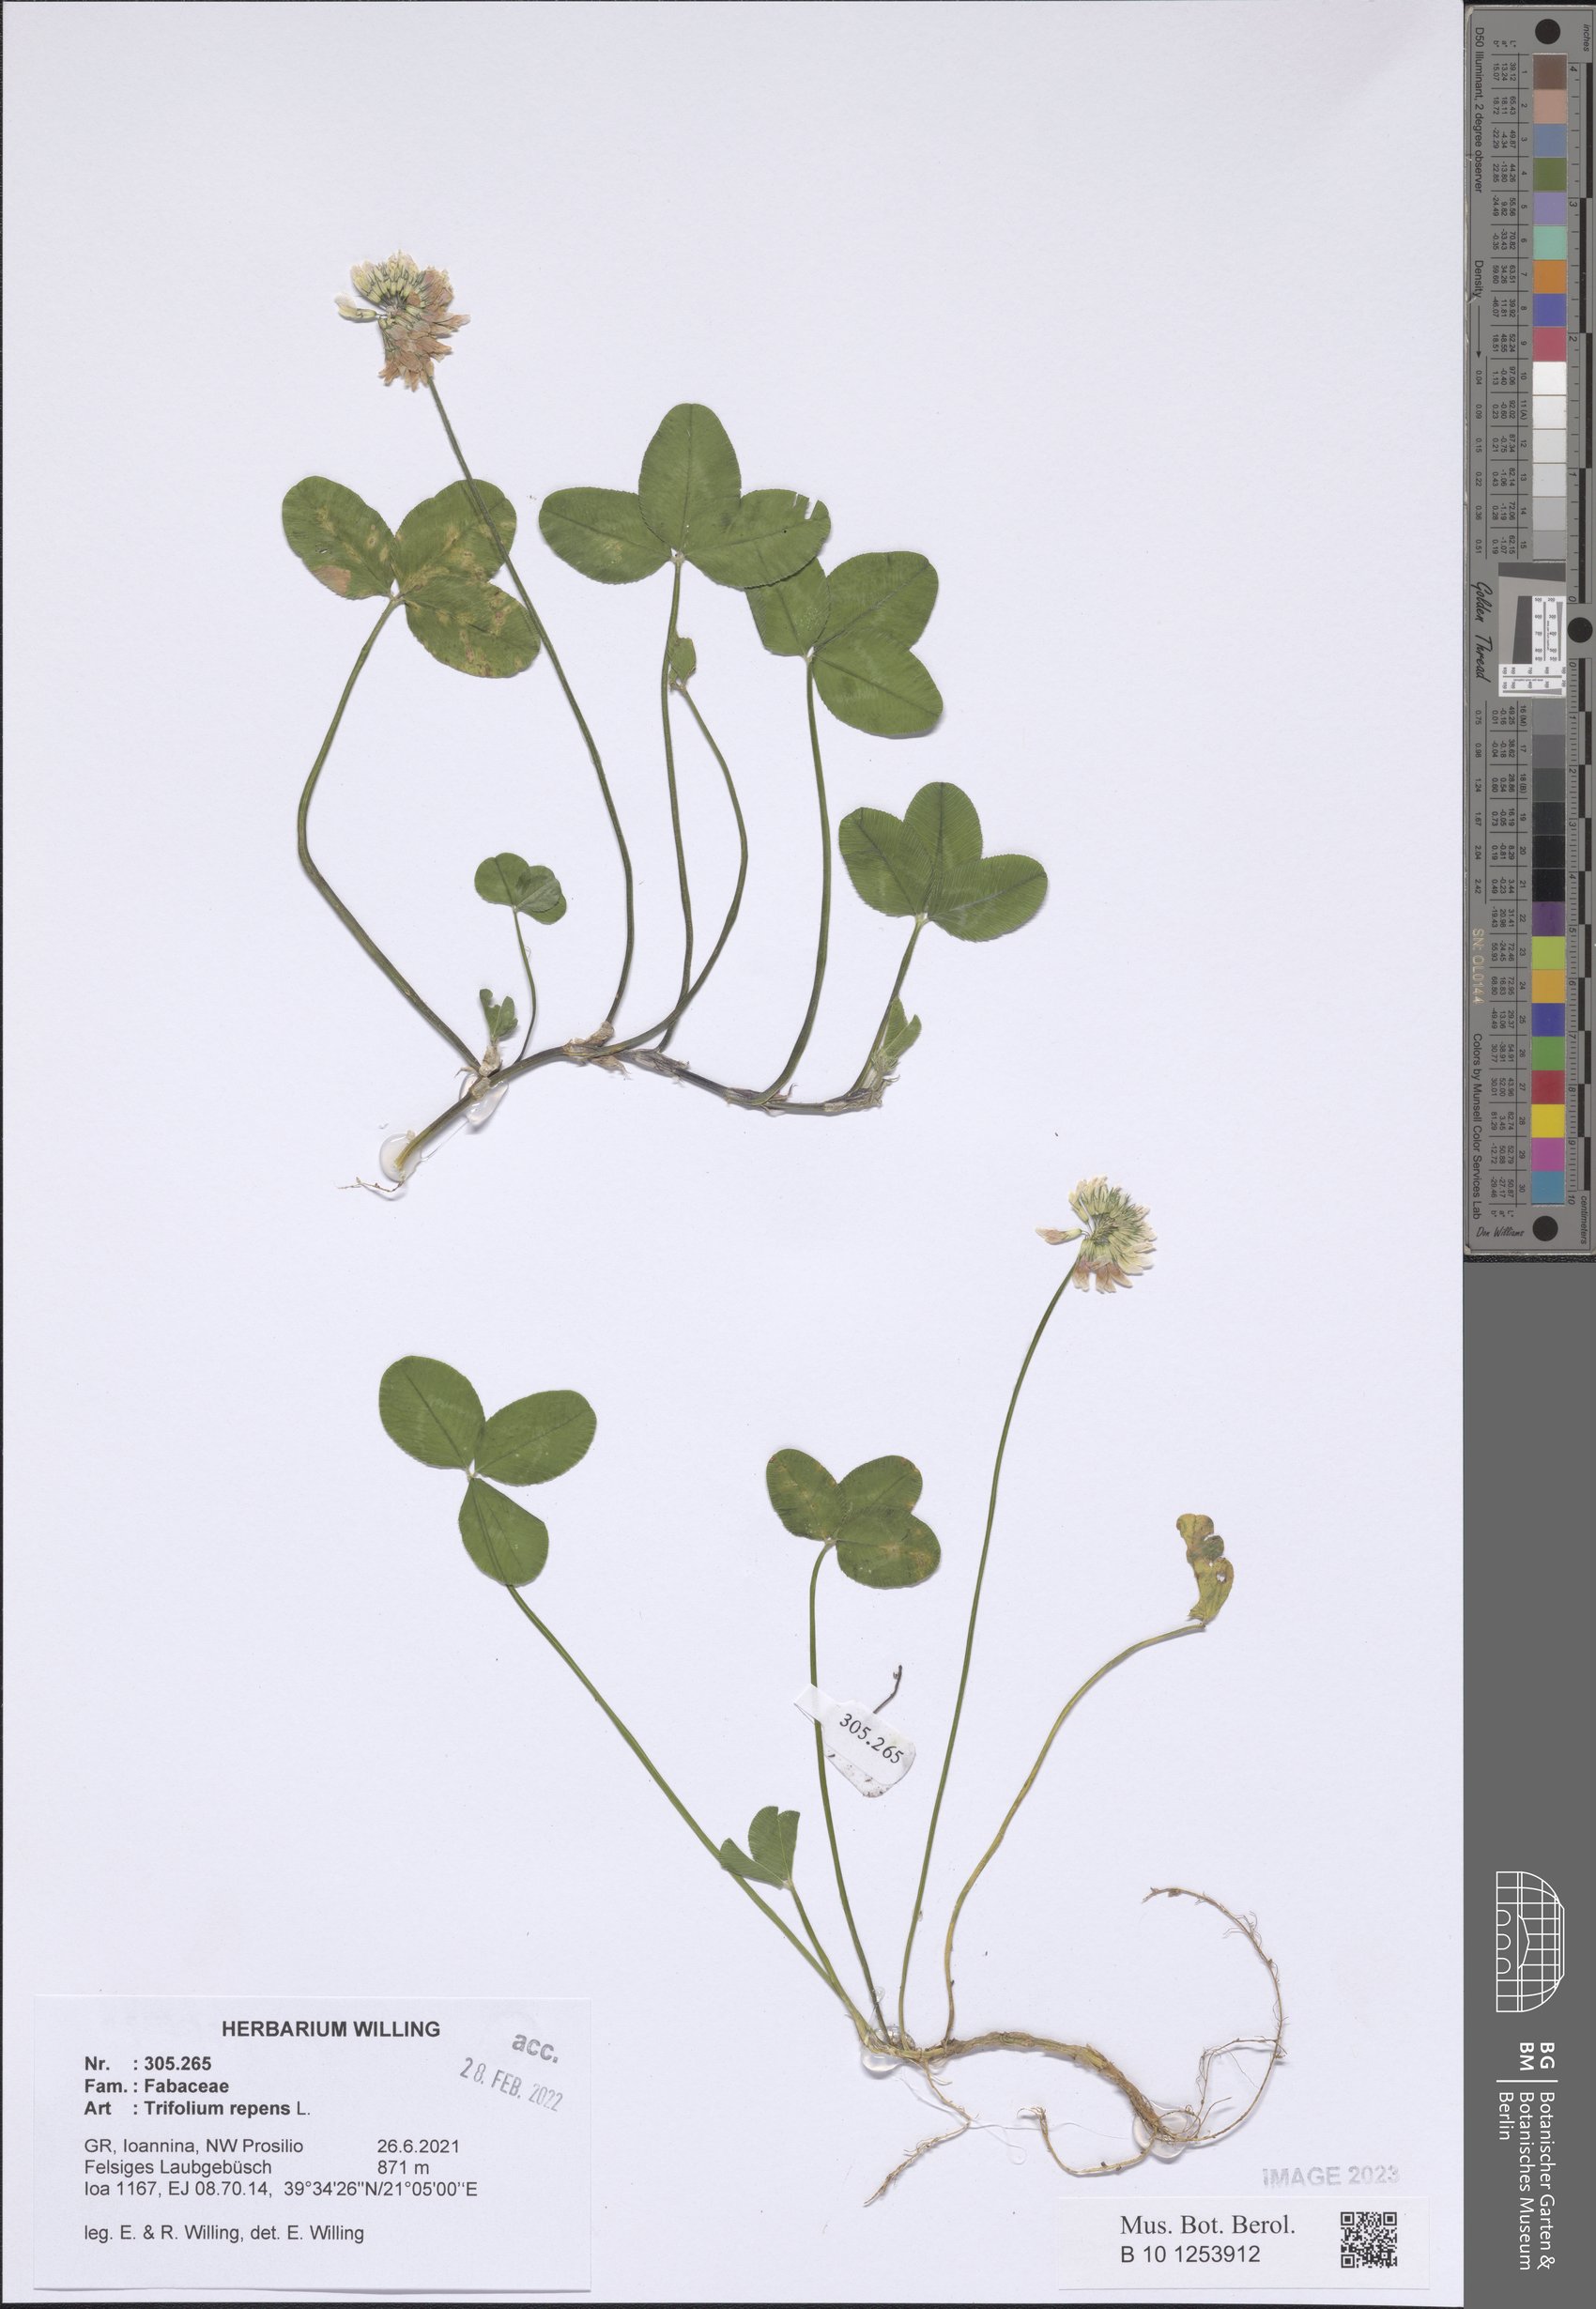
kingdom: Plantae
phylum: Tracheophyta
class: Magnoliopsida
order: Fabales
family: Fabaceae
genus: Trifolium
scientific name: Trifolium repens
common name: White clover
